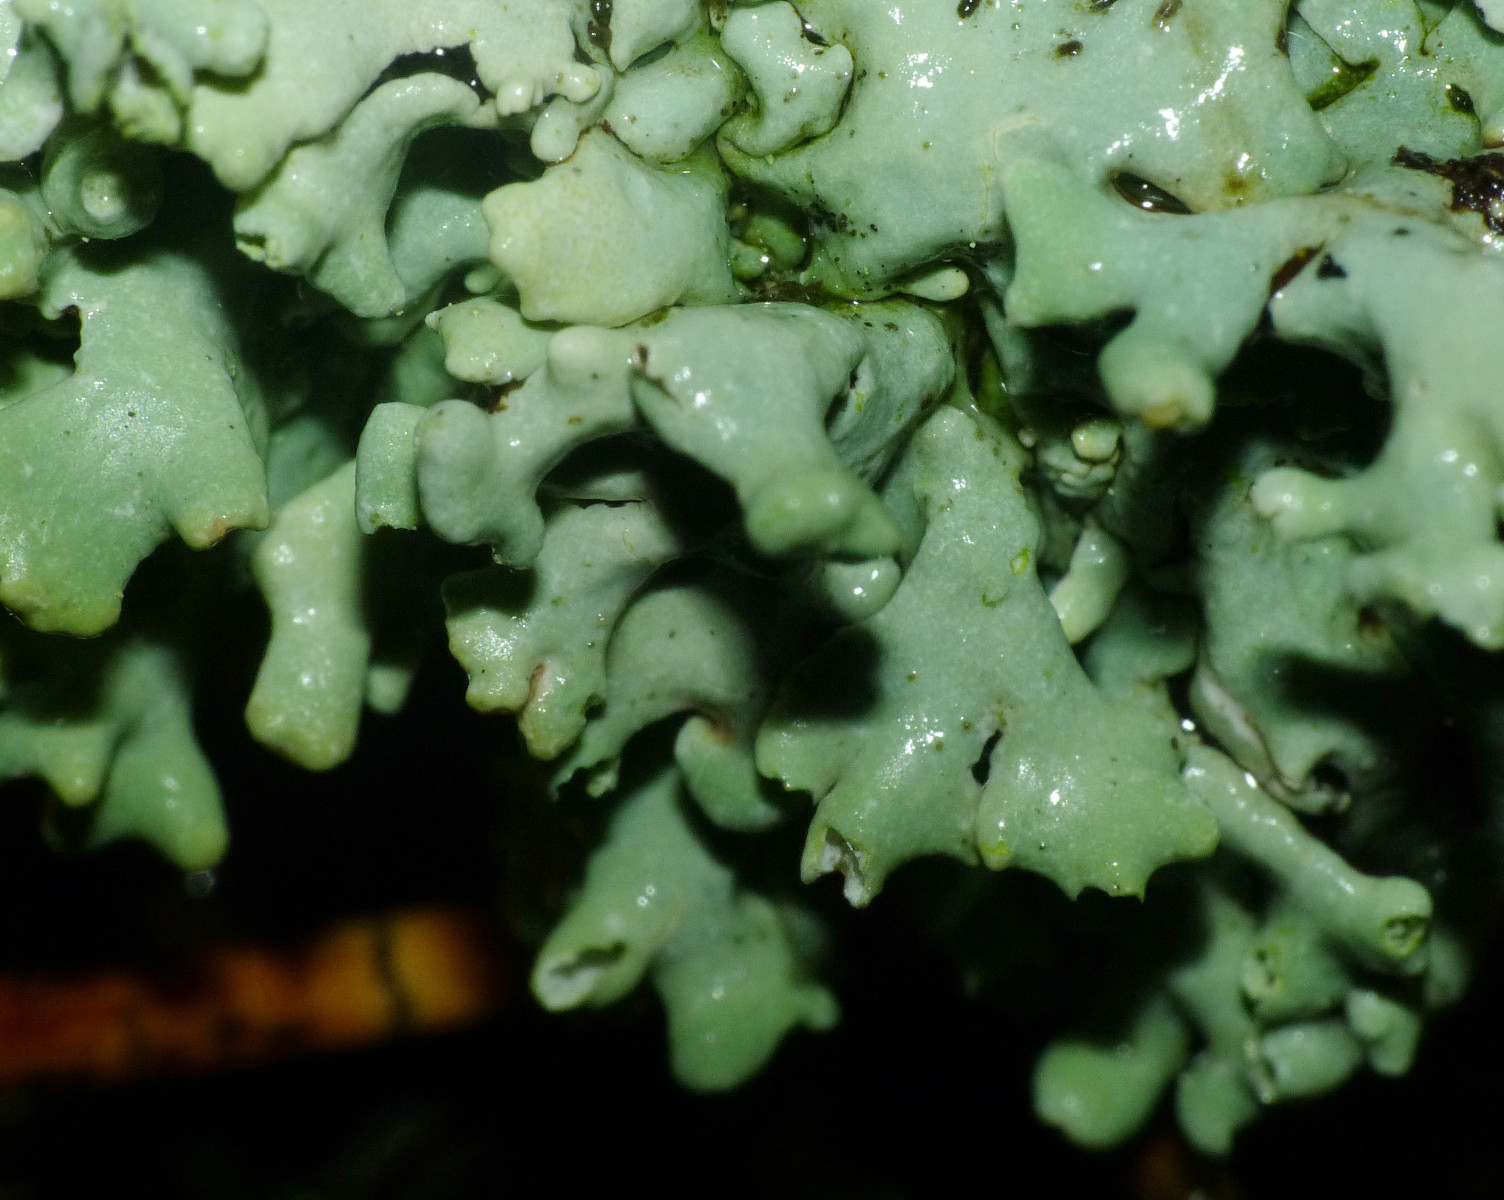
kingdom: Fungi
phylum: Ascomycota
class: Lecanoromycetes
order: Lecanorales
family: Parmeliaceae
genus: Hypogymnia
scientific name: Hypogymnia physodes
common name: almindelig kvistlav
